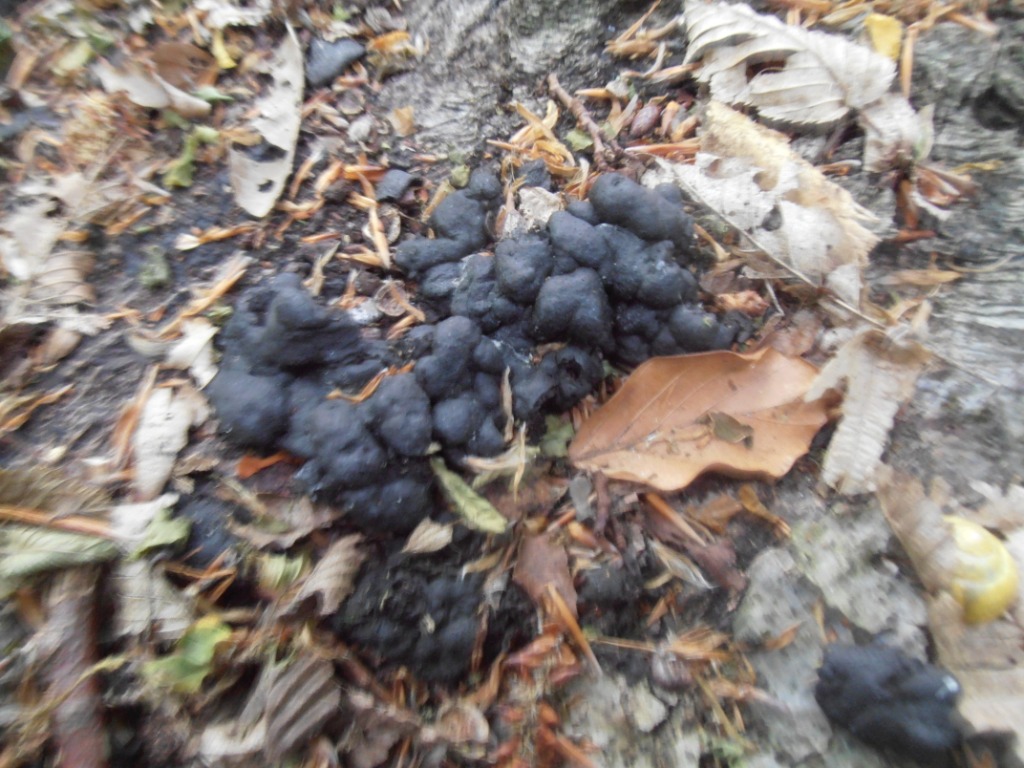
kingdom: Fungi
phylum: Ascomycota
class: Sordariomycetes
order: Xylariales
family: Xylariaceae
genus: Kretzschmaria
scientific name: Kretzschmaria deusta
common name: stor kulsvamp
